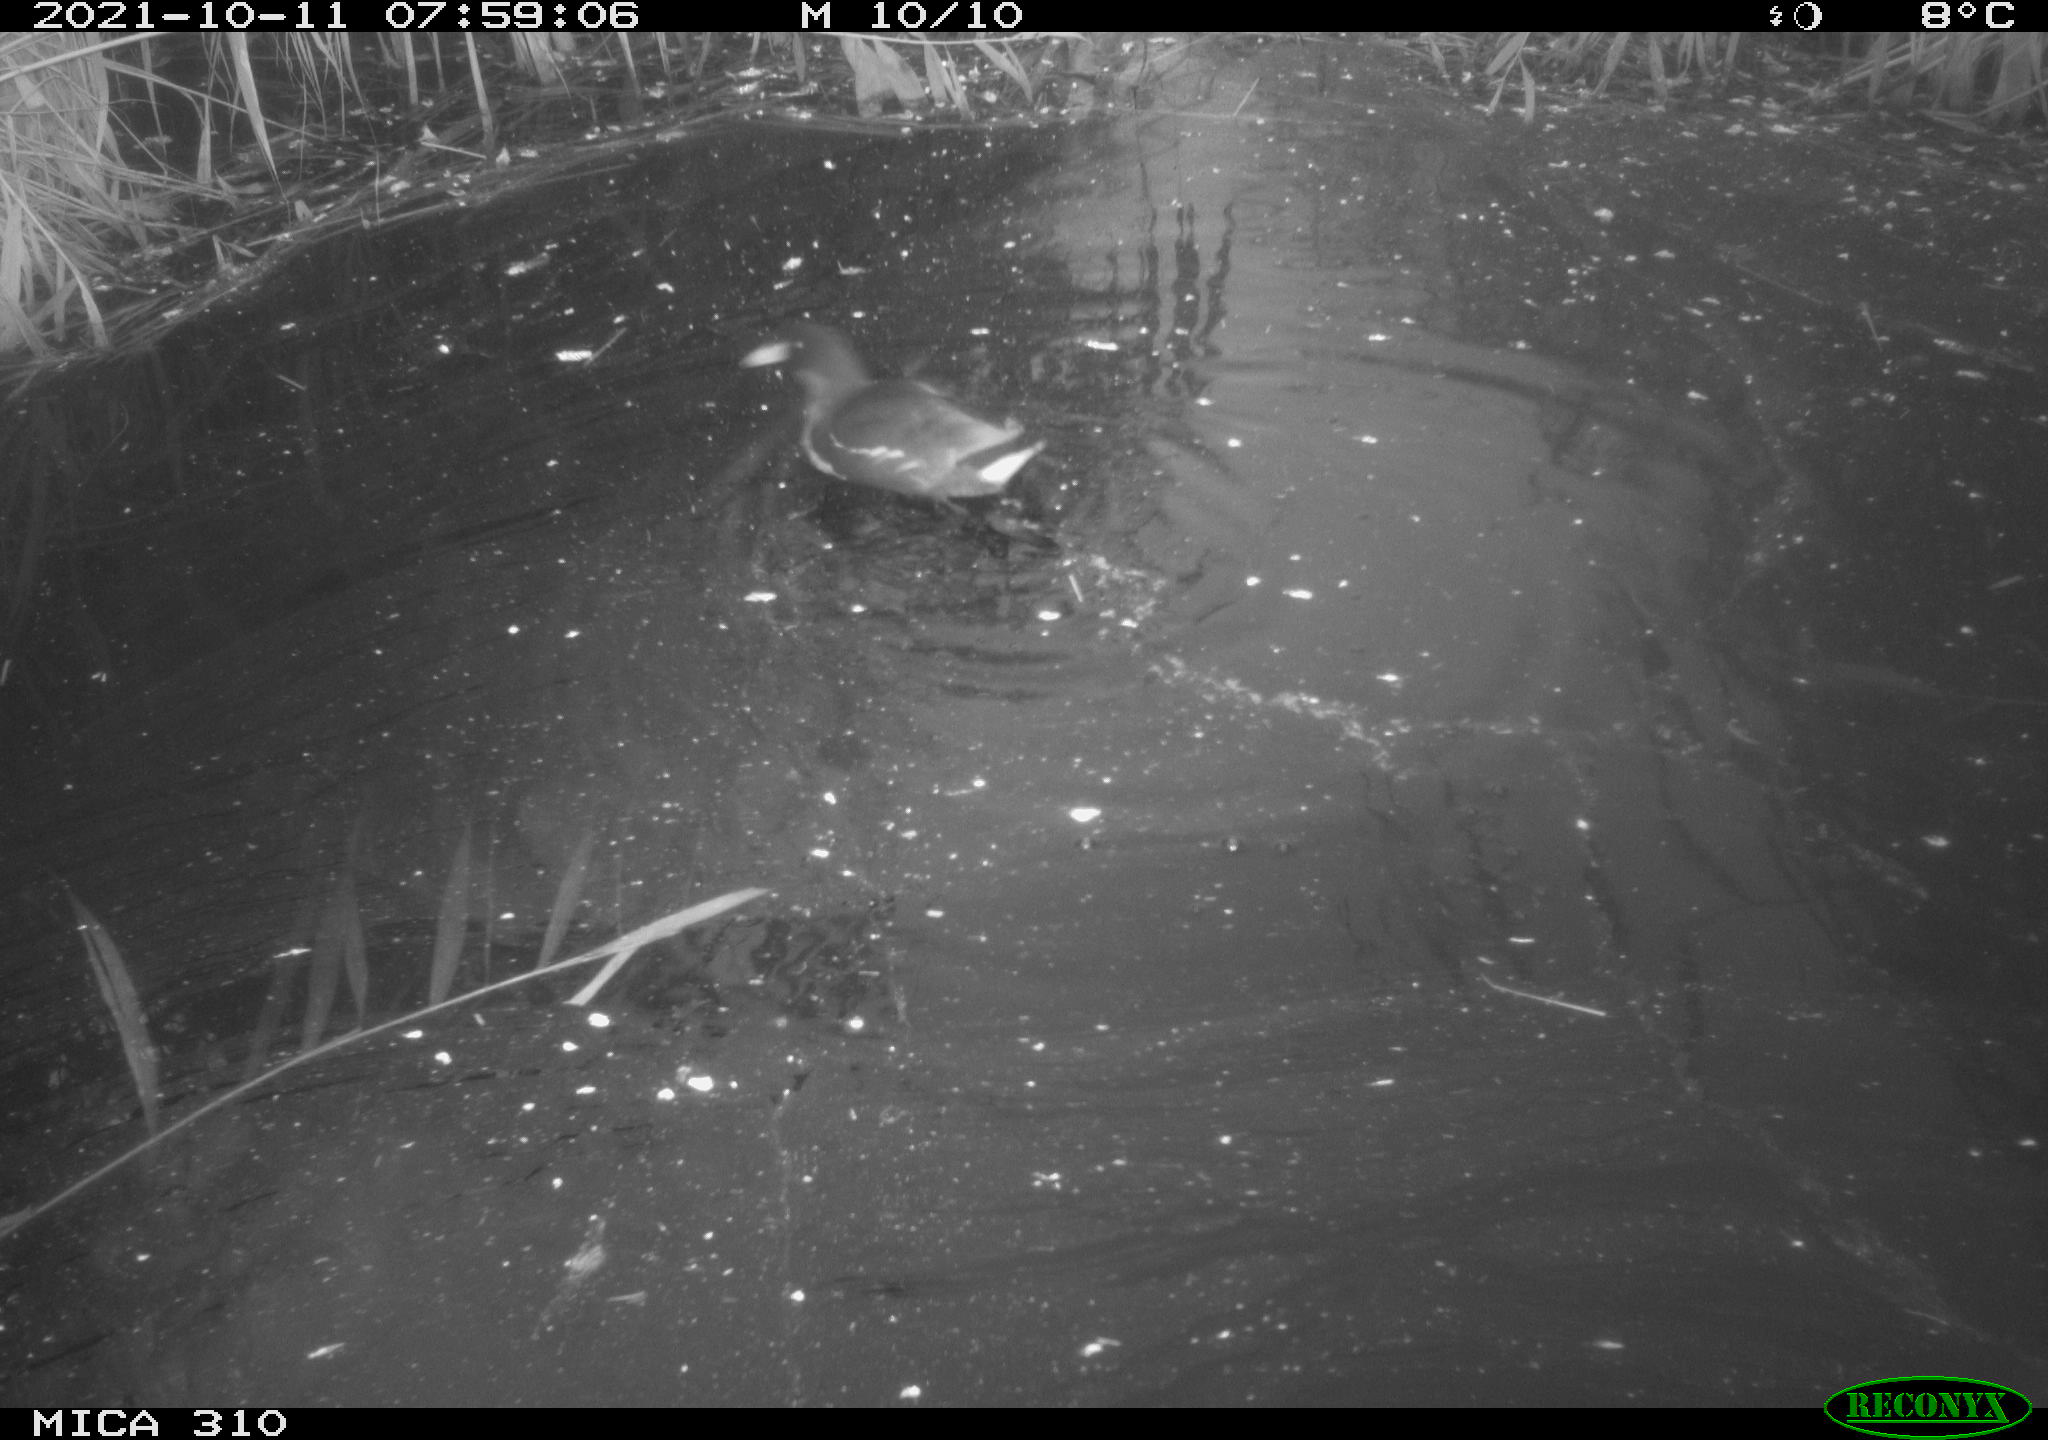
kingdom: Animalia
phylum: Chordata
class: Aves
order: Gruiformes
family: Rallidae
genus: Gallinula
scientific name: Gallinula chloropus
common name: Common moorhen
